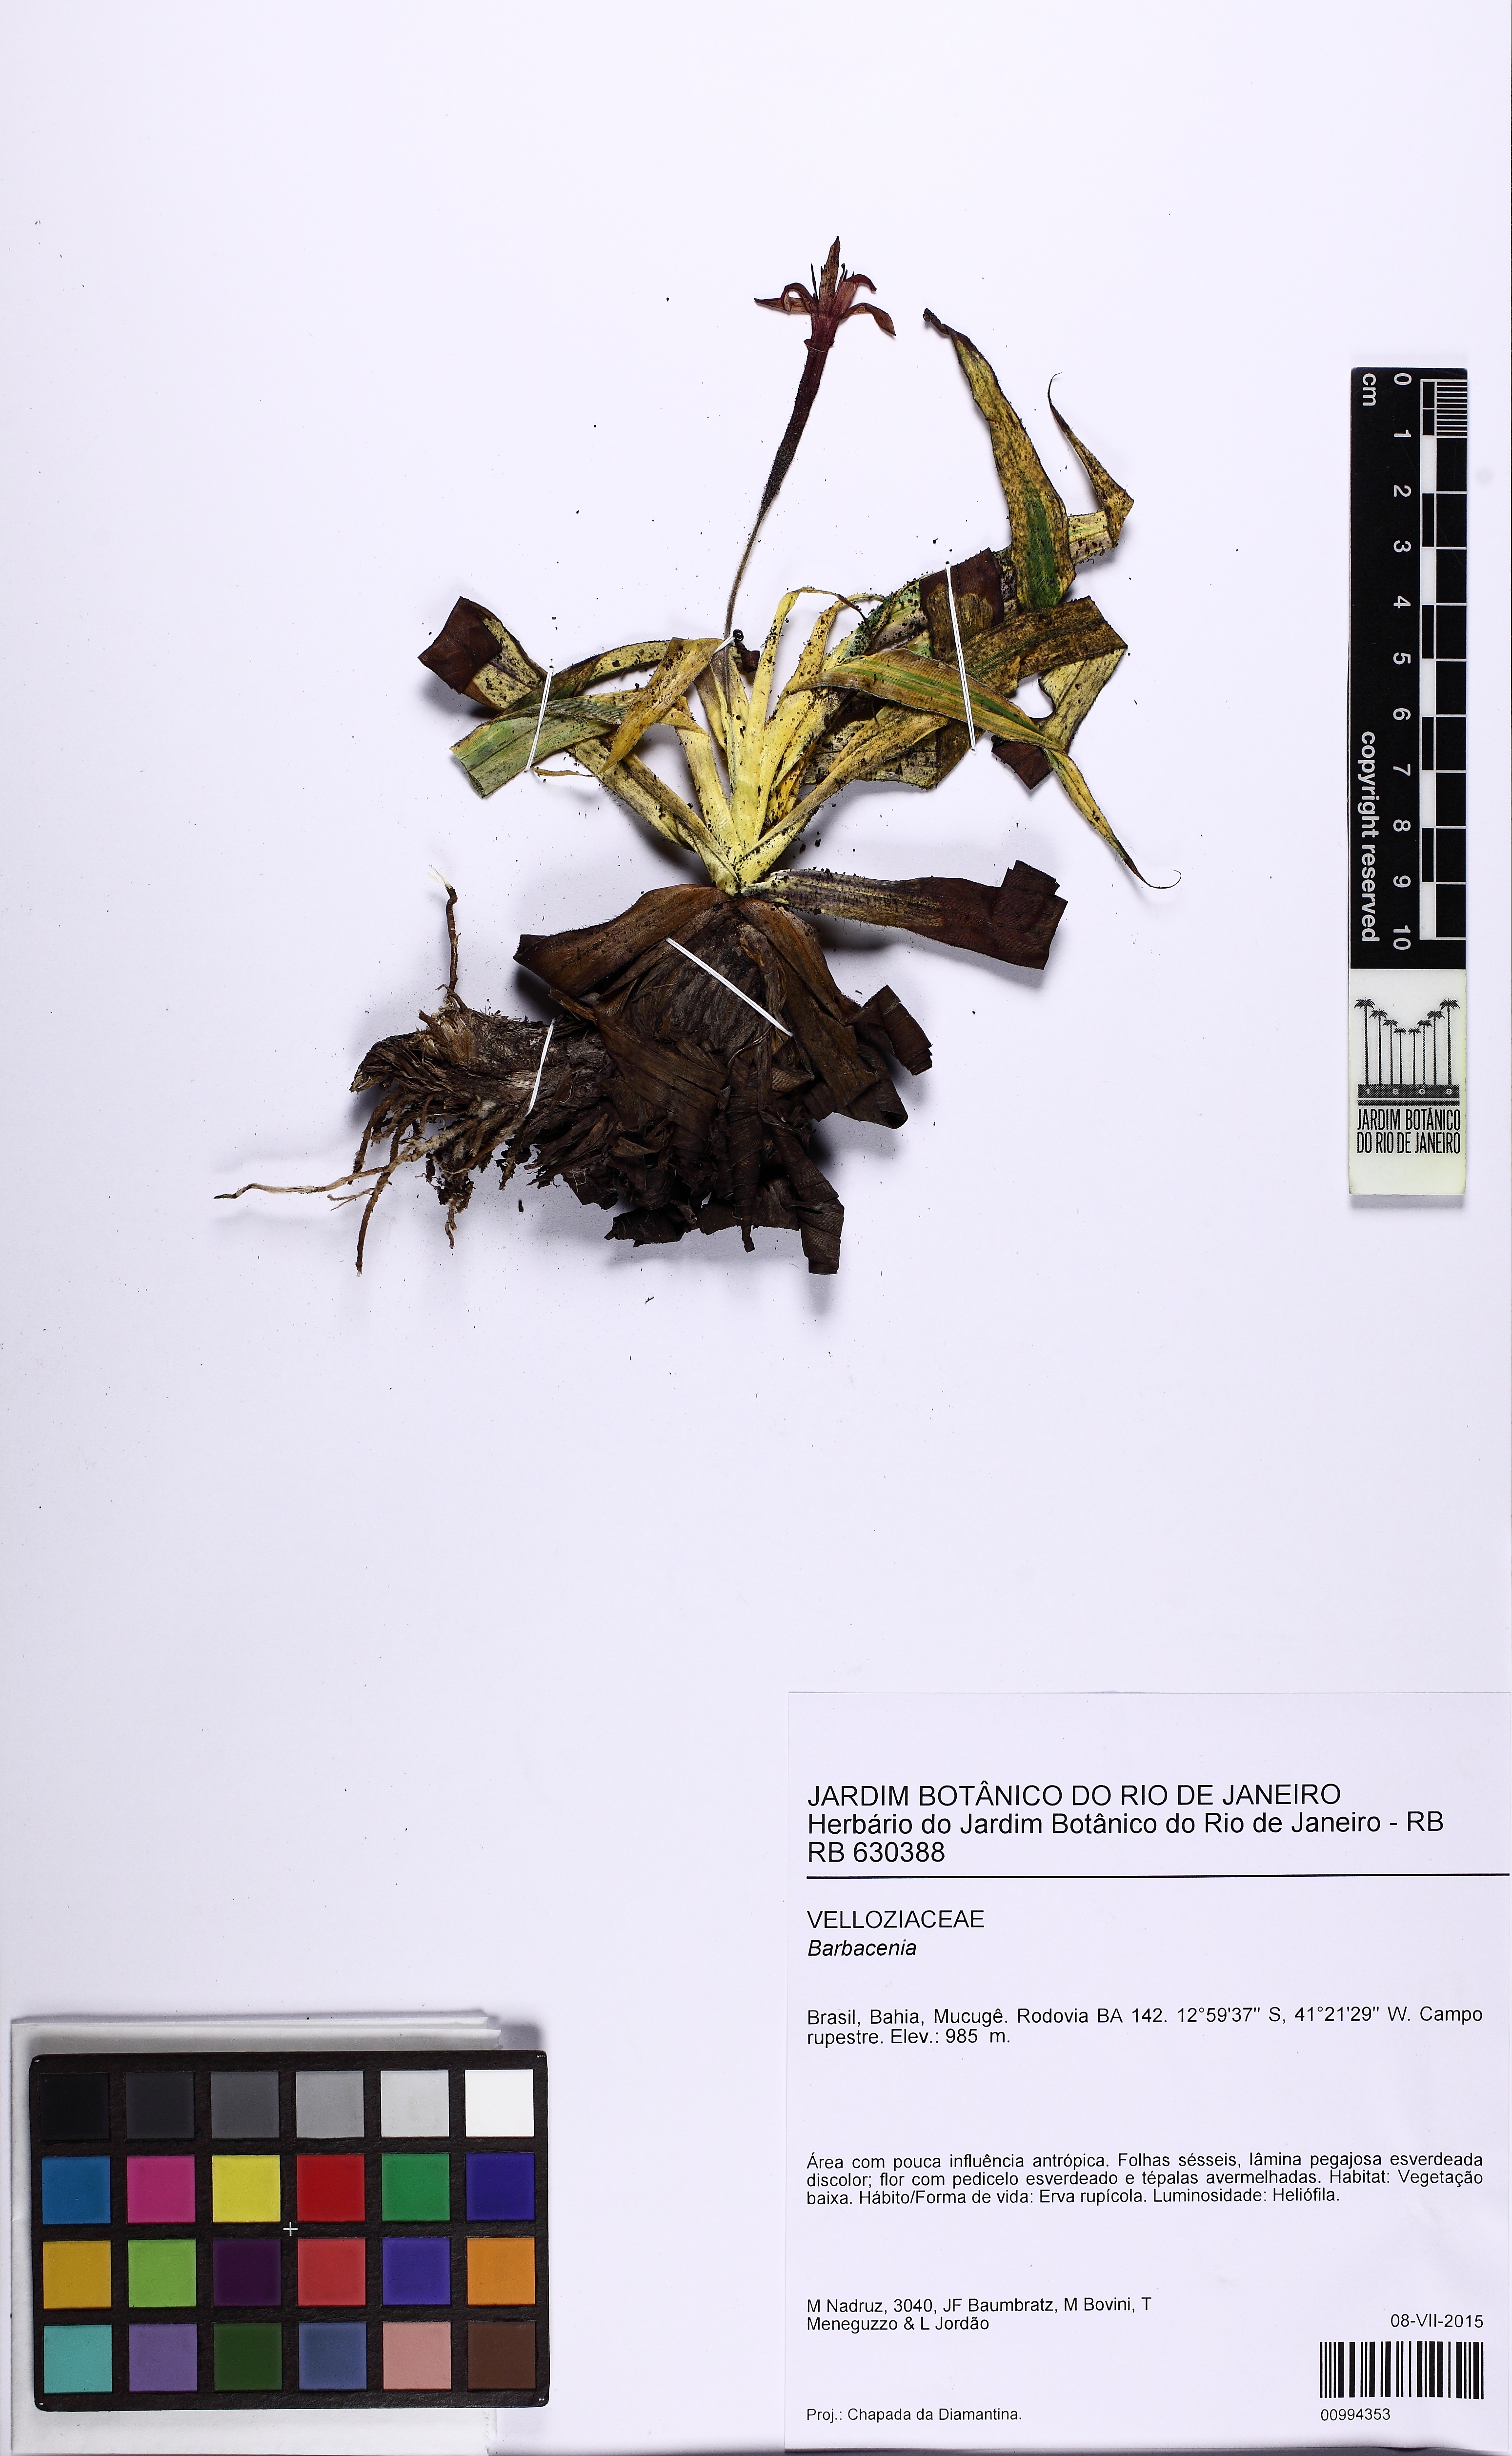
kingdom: Plantae
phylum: Tracheophyta
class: Liliopsida
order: Pandanales
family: Velloziaceae
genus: Barbacenia
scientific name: Barbacenia blanchetii
